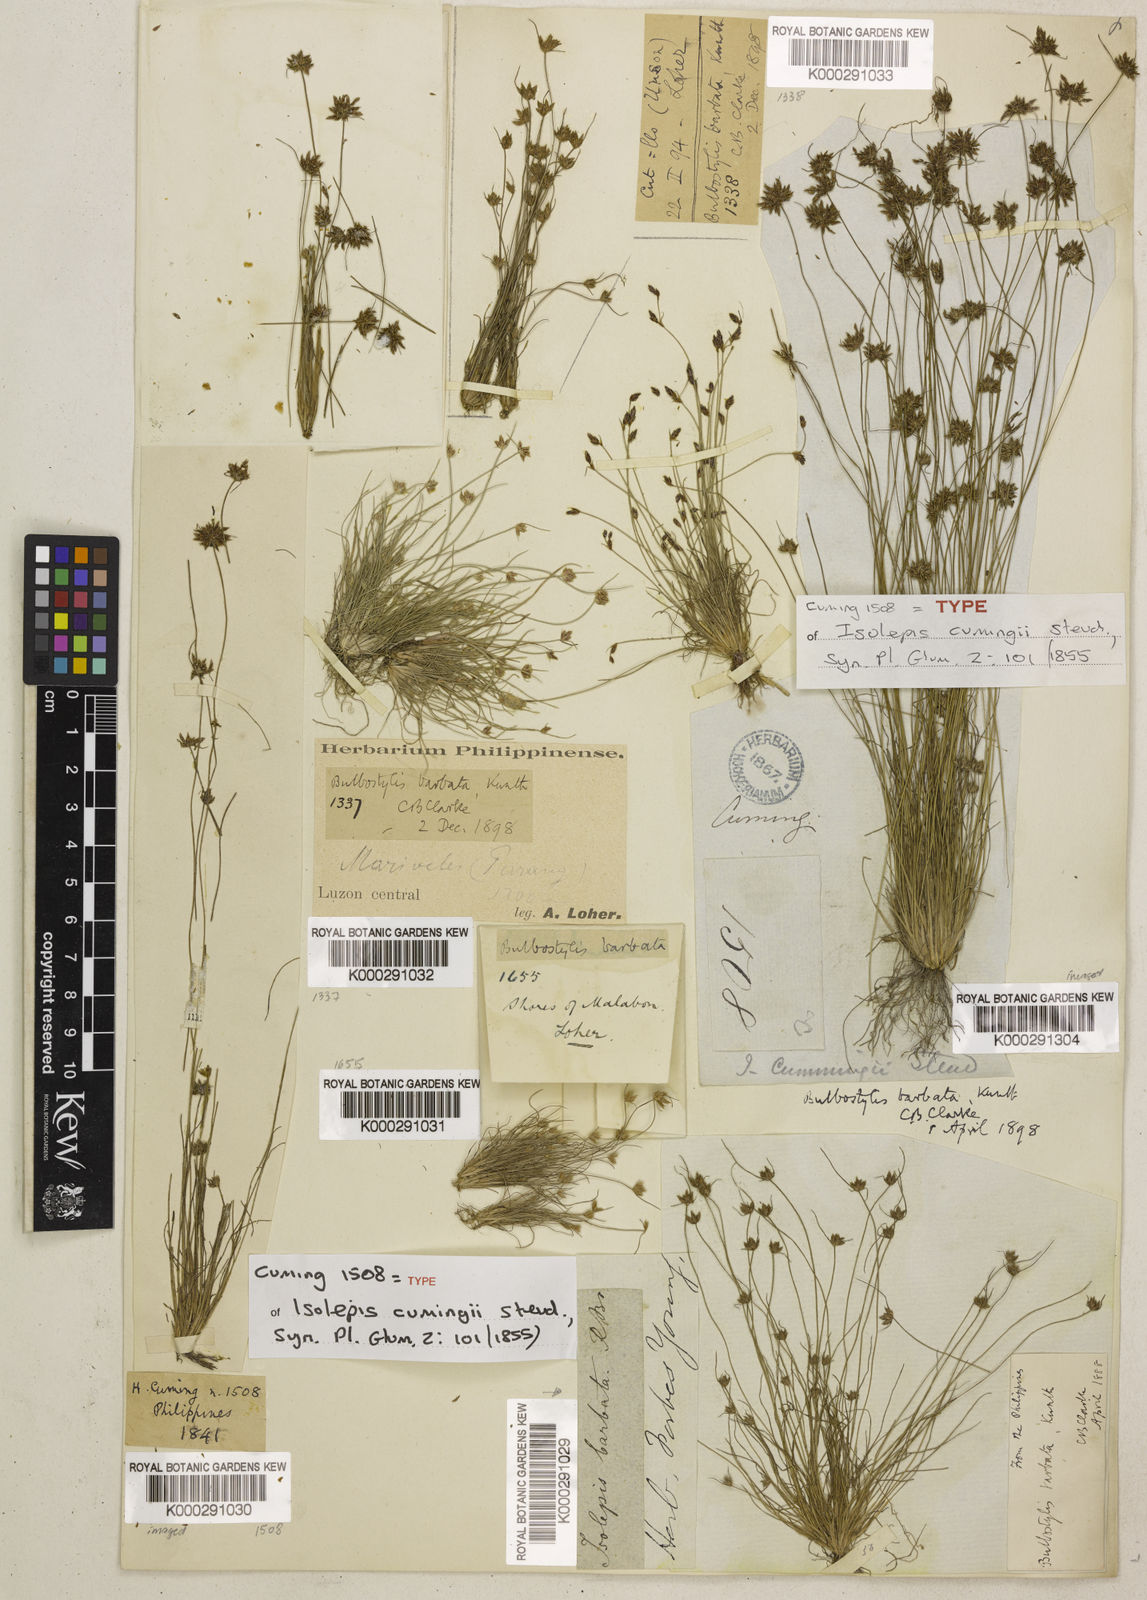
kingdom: Plantae
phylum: Tracheophyta
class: Liliopsida
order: Poales
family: Cyperaceae
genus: Bulbostylis
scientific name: Bulbostylis barbata
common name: Watergrass
